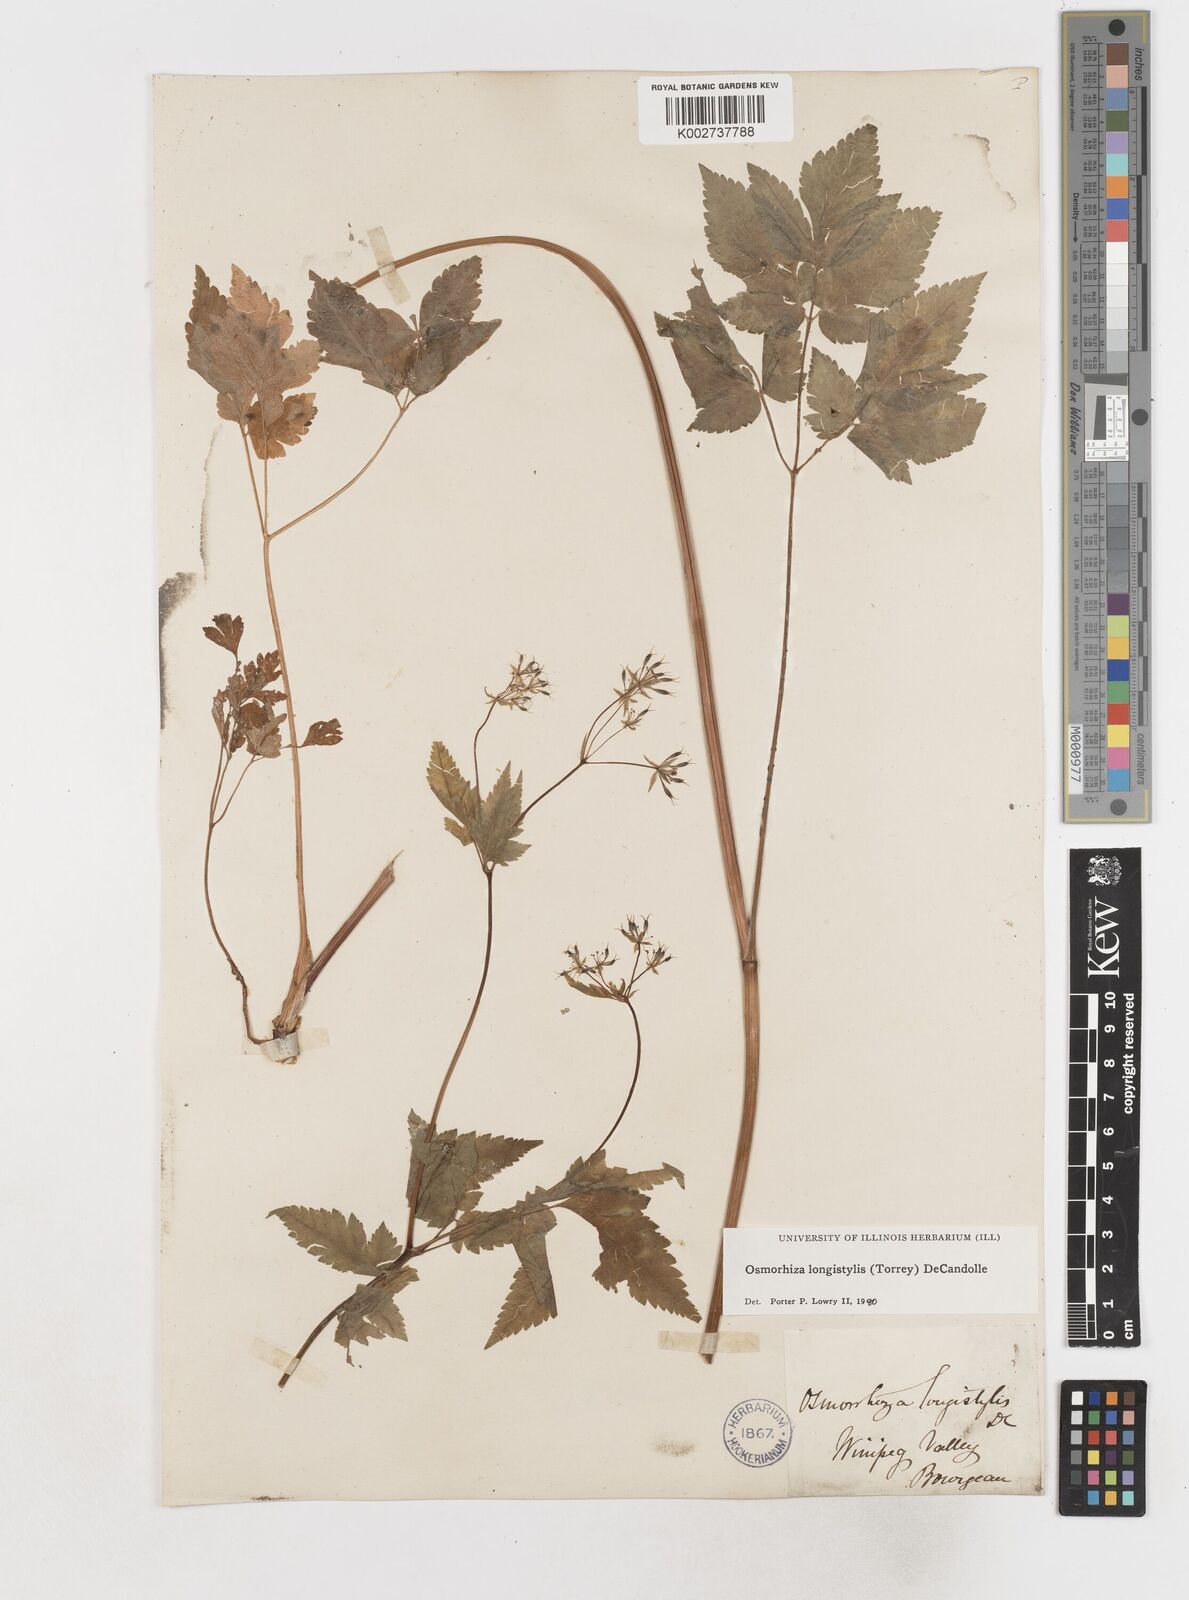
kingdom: Plantae
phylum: Tracheophyta
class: Magnoliopsida
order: Apiales
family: Apiaceae
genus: Osmorhiza
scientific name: Osmorhiza longistylis
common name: Smooth sweet cicely
